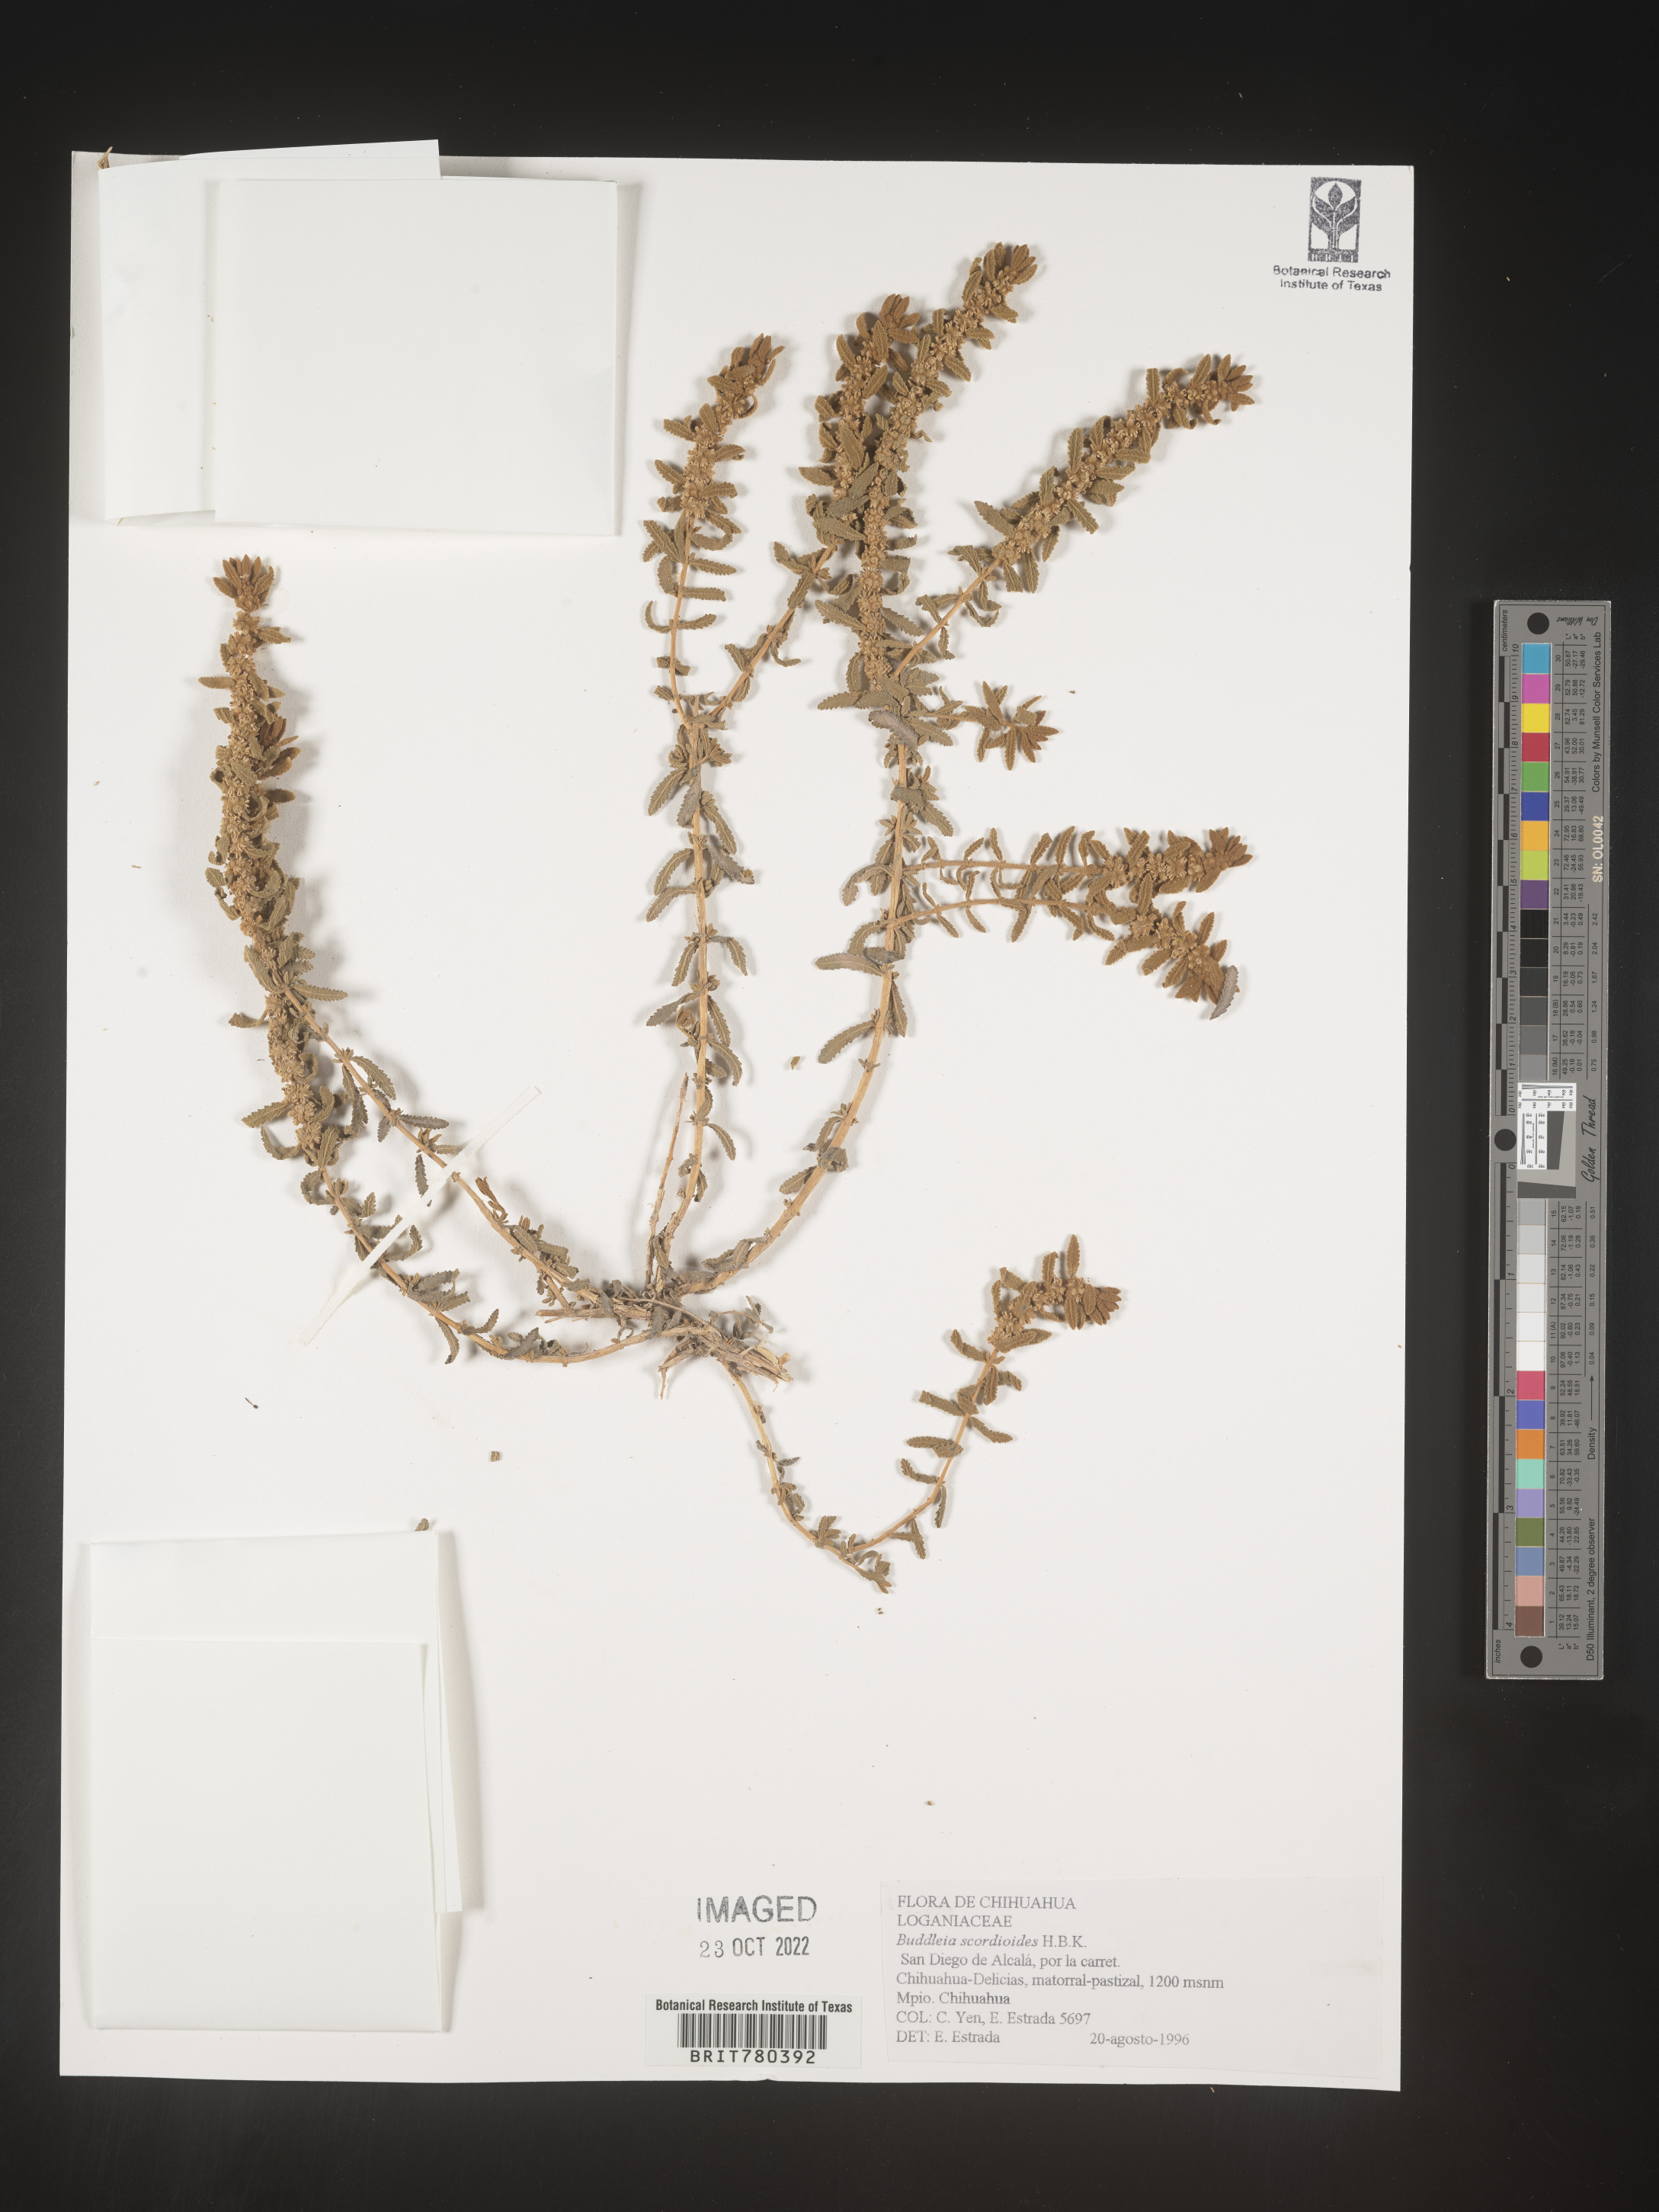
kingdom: Plantae
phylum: Tracheophyta
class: Magnoliopsida
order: Lamiales
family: Scrophulariaceae
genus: Buddleja
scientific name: Buddleja
